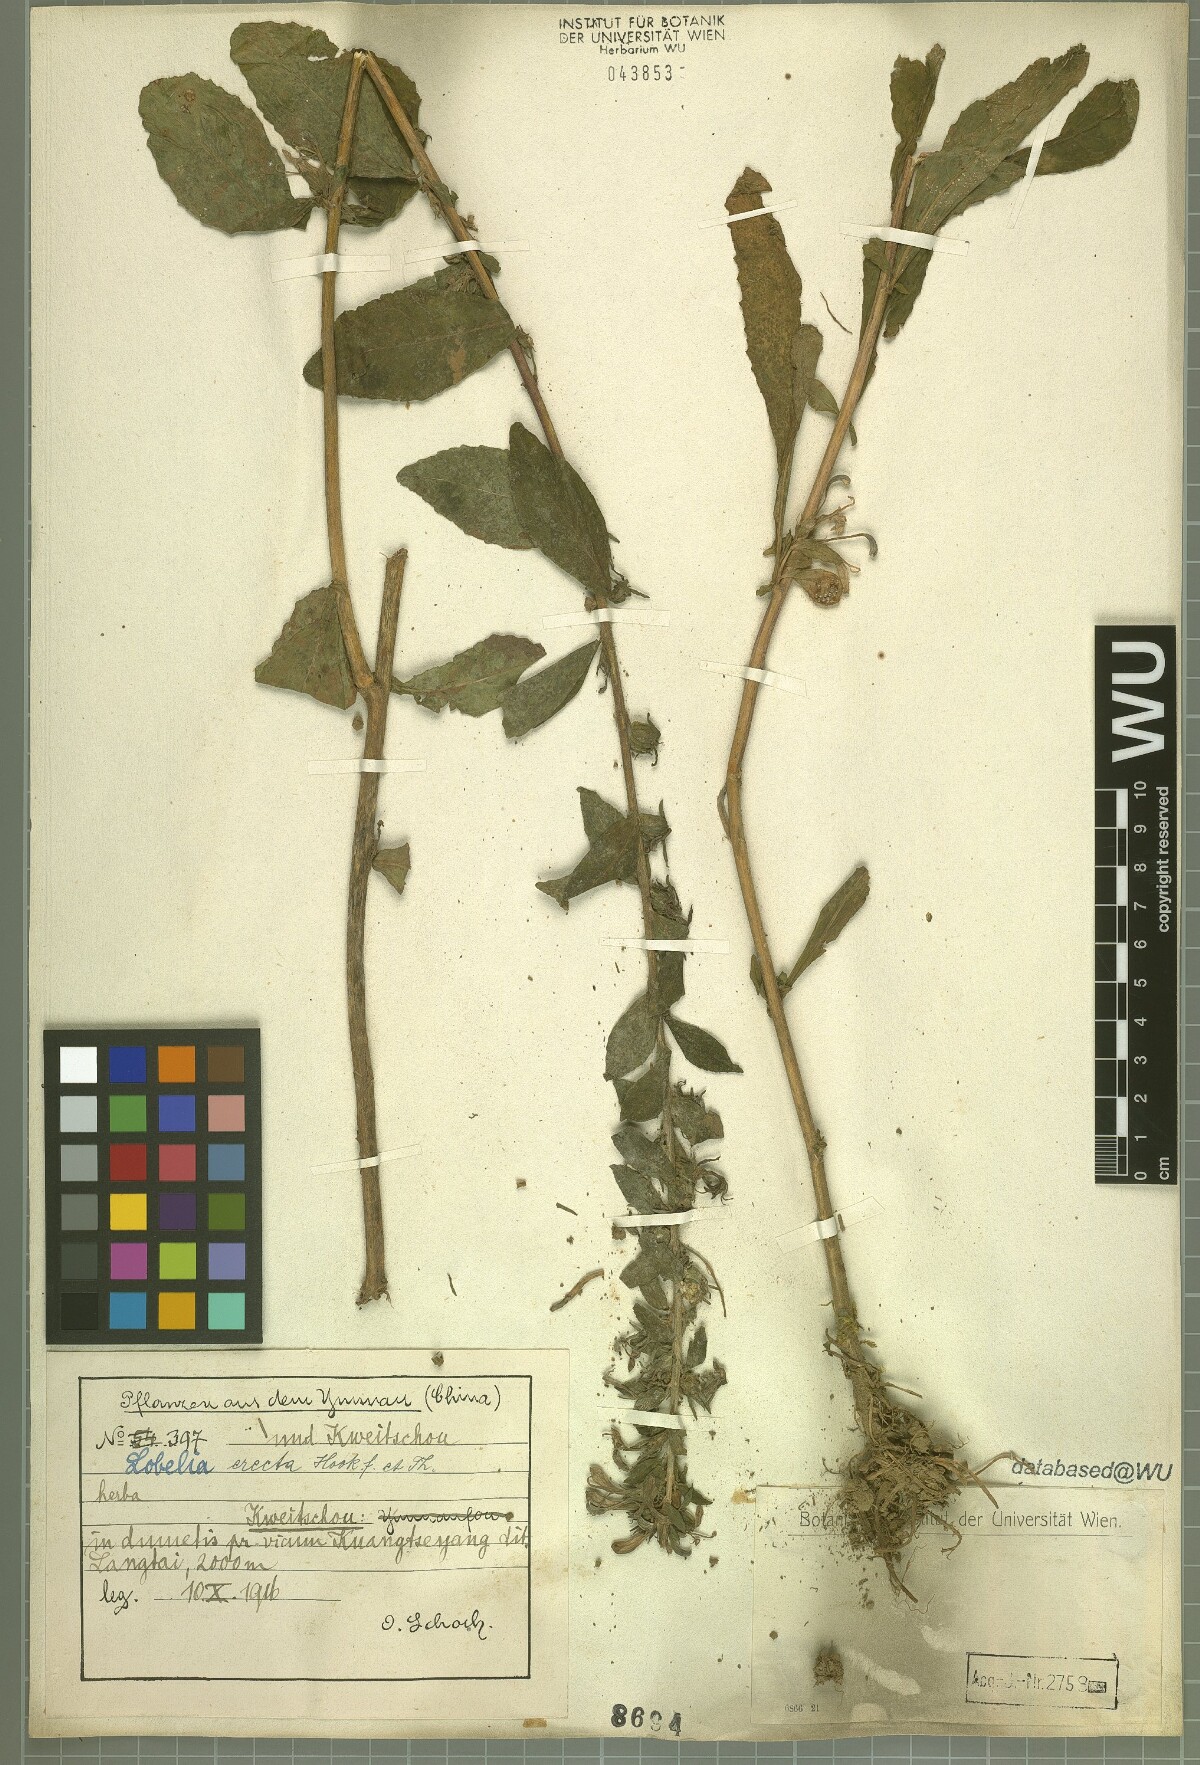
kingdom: Plantae
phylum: Tracheophyta
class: Magnoliopsida
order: Asterales
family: Campanulaceae
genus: Lobelia
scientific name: Lobelia erectiuscula
